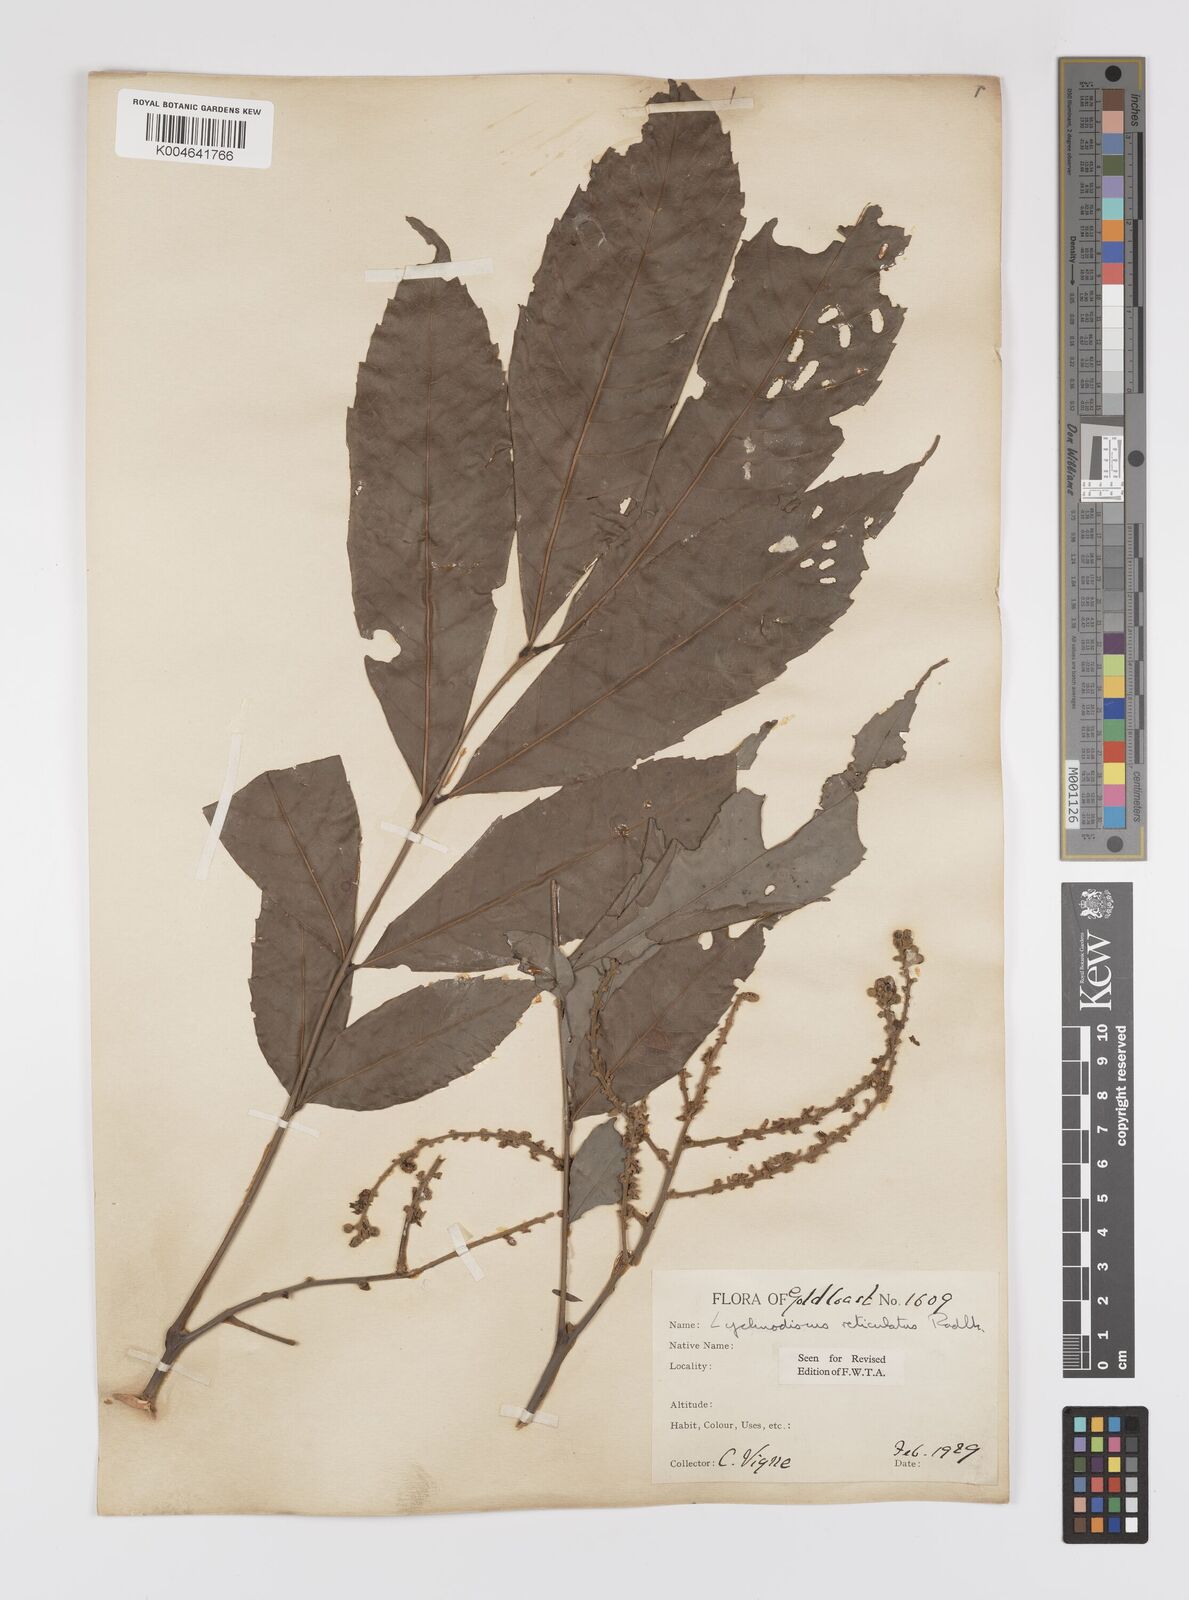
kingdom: Plantae
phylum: Tracheophyta
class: Magnoliopsida
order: Sapindales
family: Sapindaceae
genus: Lychnodiscus
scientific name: Lychnodiscus reticulatus
